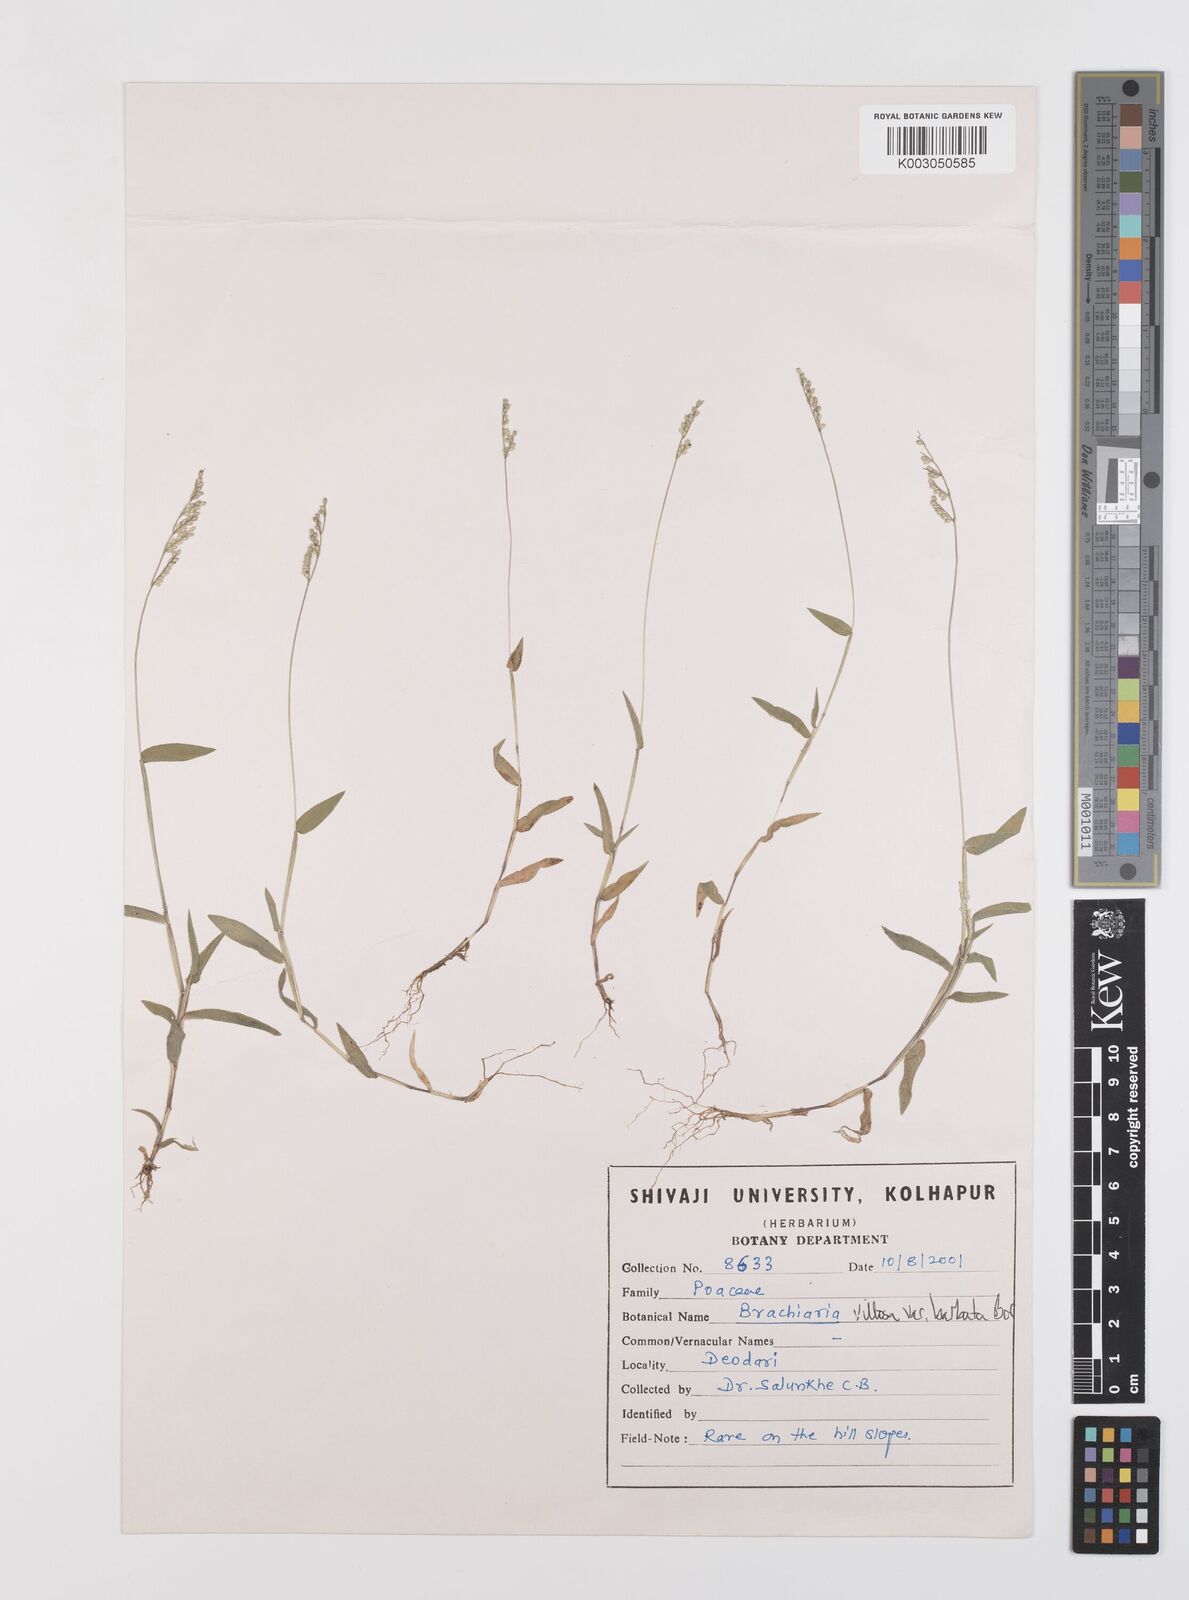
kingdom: Plantae
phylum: Tracheophyta
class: Liliopsida
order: Poales
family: Poaceae
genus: Urochloa
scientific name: Urochloa villosa
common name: Hairy signalgrass
